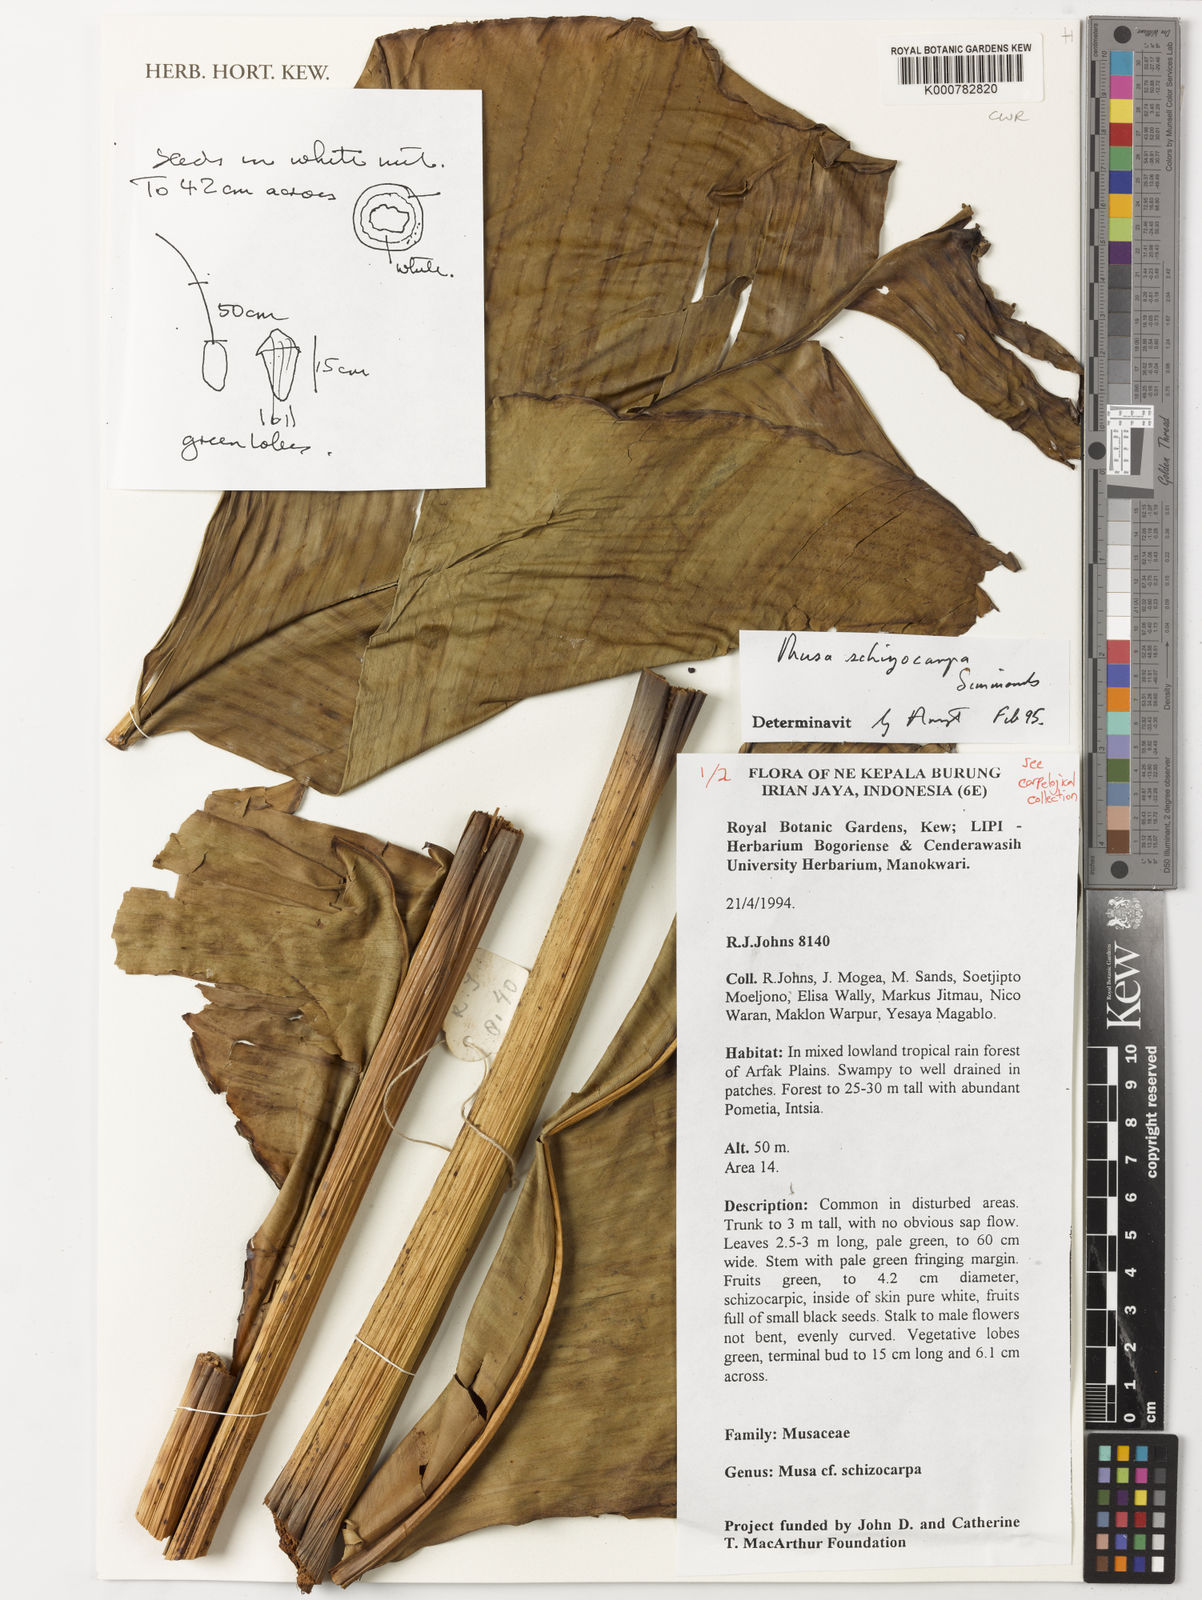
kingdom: Plantae
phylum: Tracheophyta
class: Liliopsida
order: Zingiberales
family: Musaceae
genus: Musa
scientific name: Musa schizocarpa
